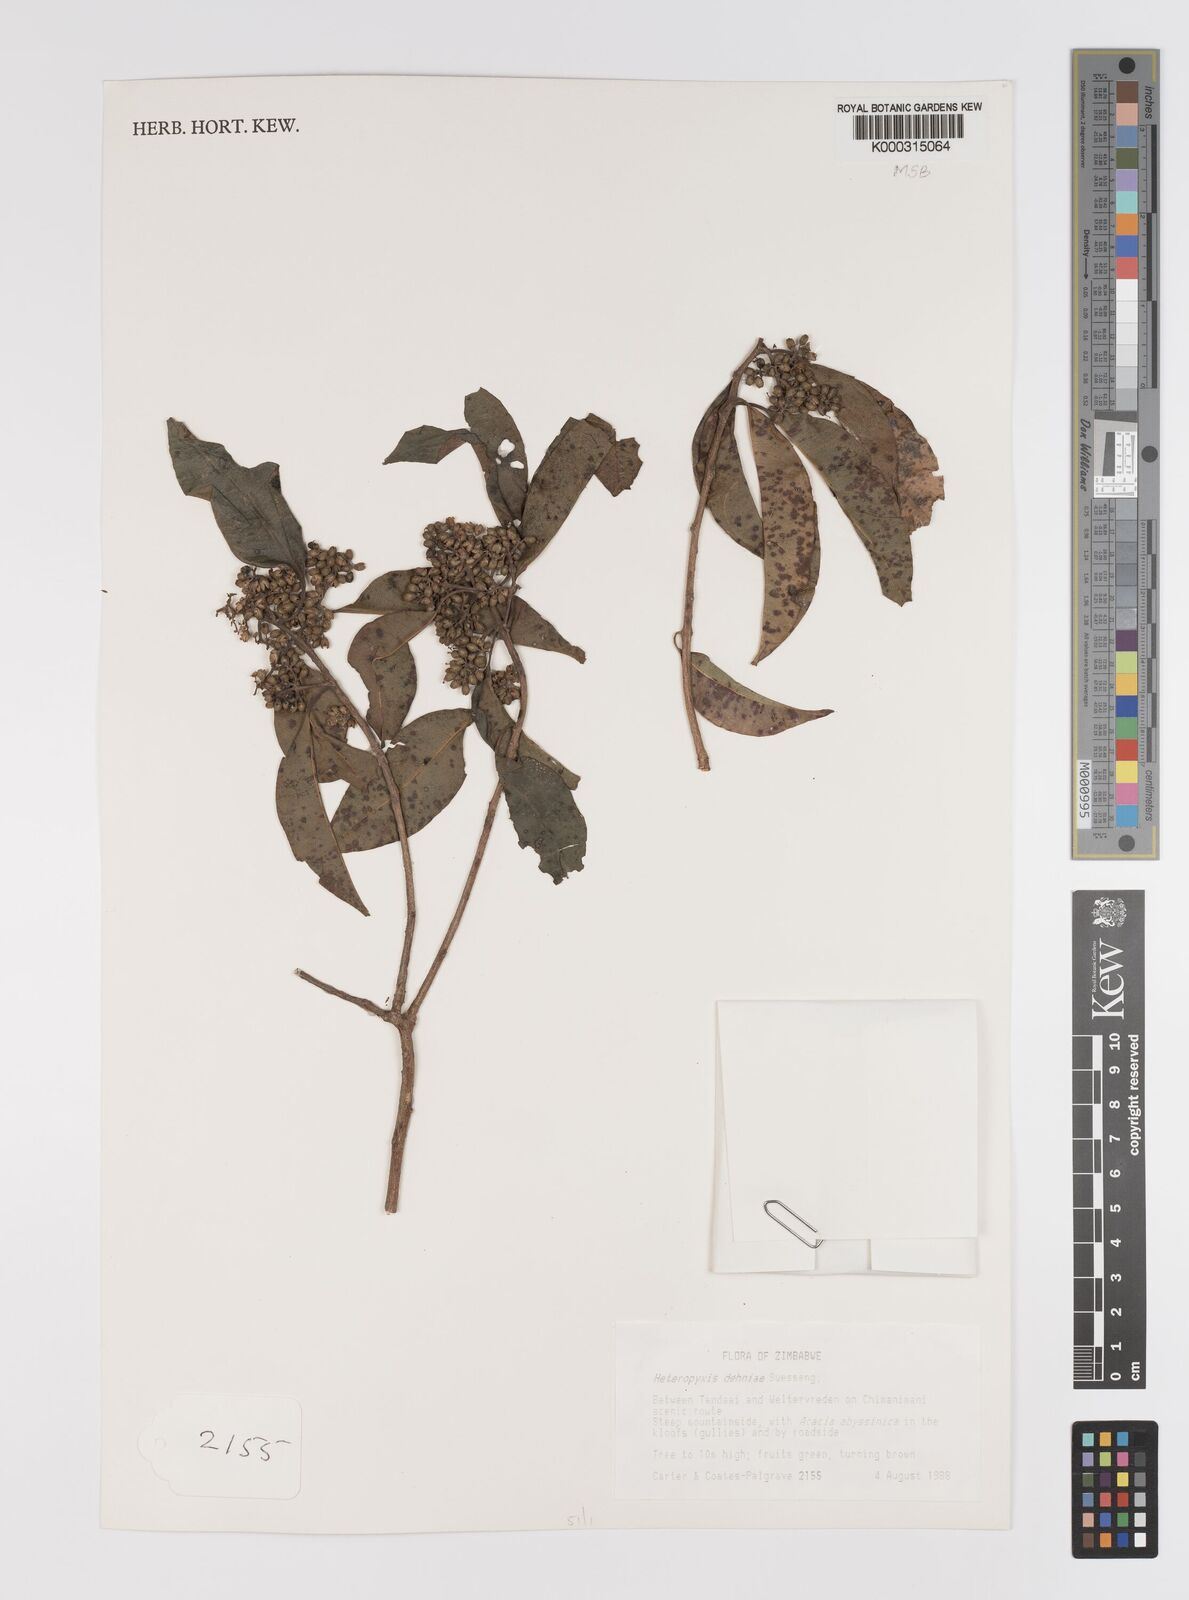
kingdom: Plantae
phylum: Tracheophyta
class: Magnoliopsida
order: Myrtales
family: Myrtaceae
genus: Heteropyxis
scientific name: Heteropyxis dehniae
